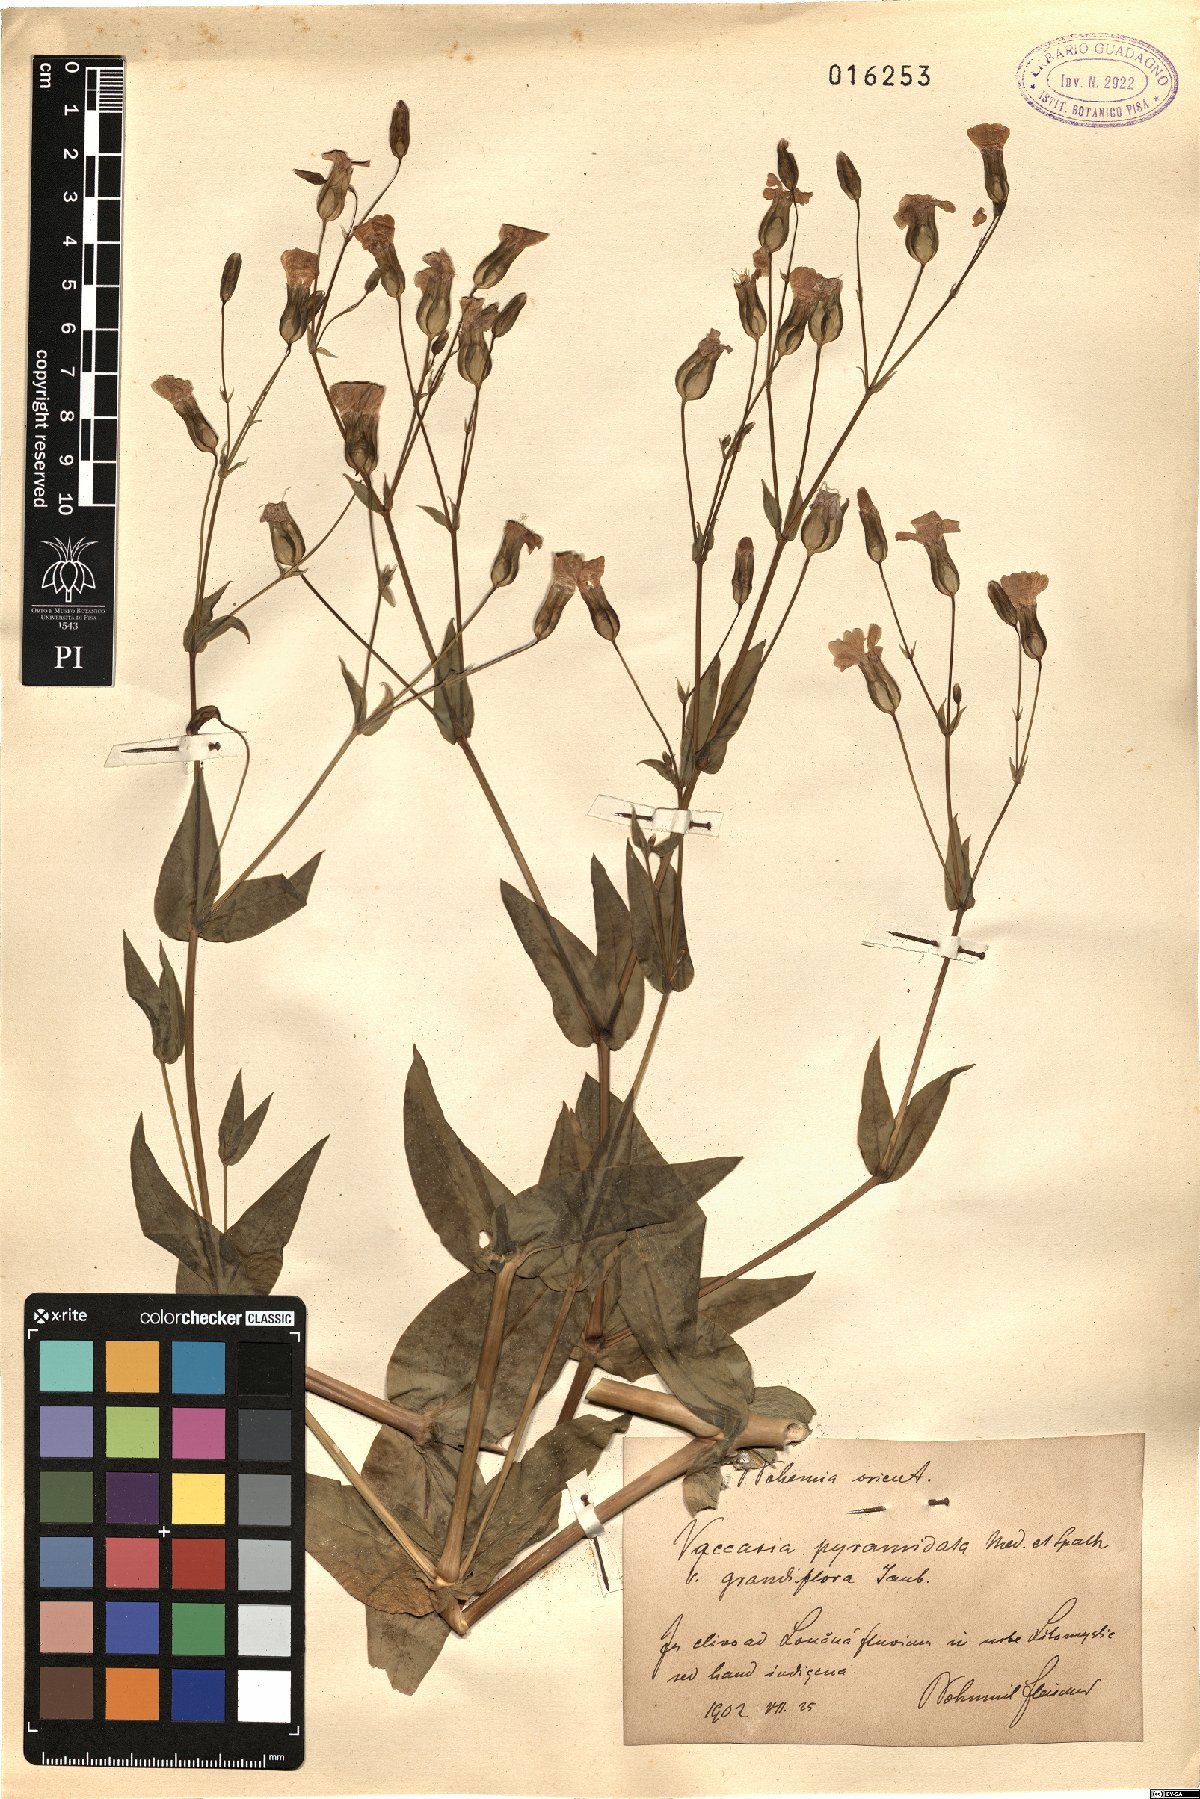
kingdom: Plantae
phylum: Tracheophyta
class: Magnoliopsida
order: Caryophyllales
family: Caryophyllaceae
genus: Gypsophila
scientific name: Gypsophila vaccaria
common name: Cow soapwort
